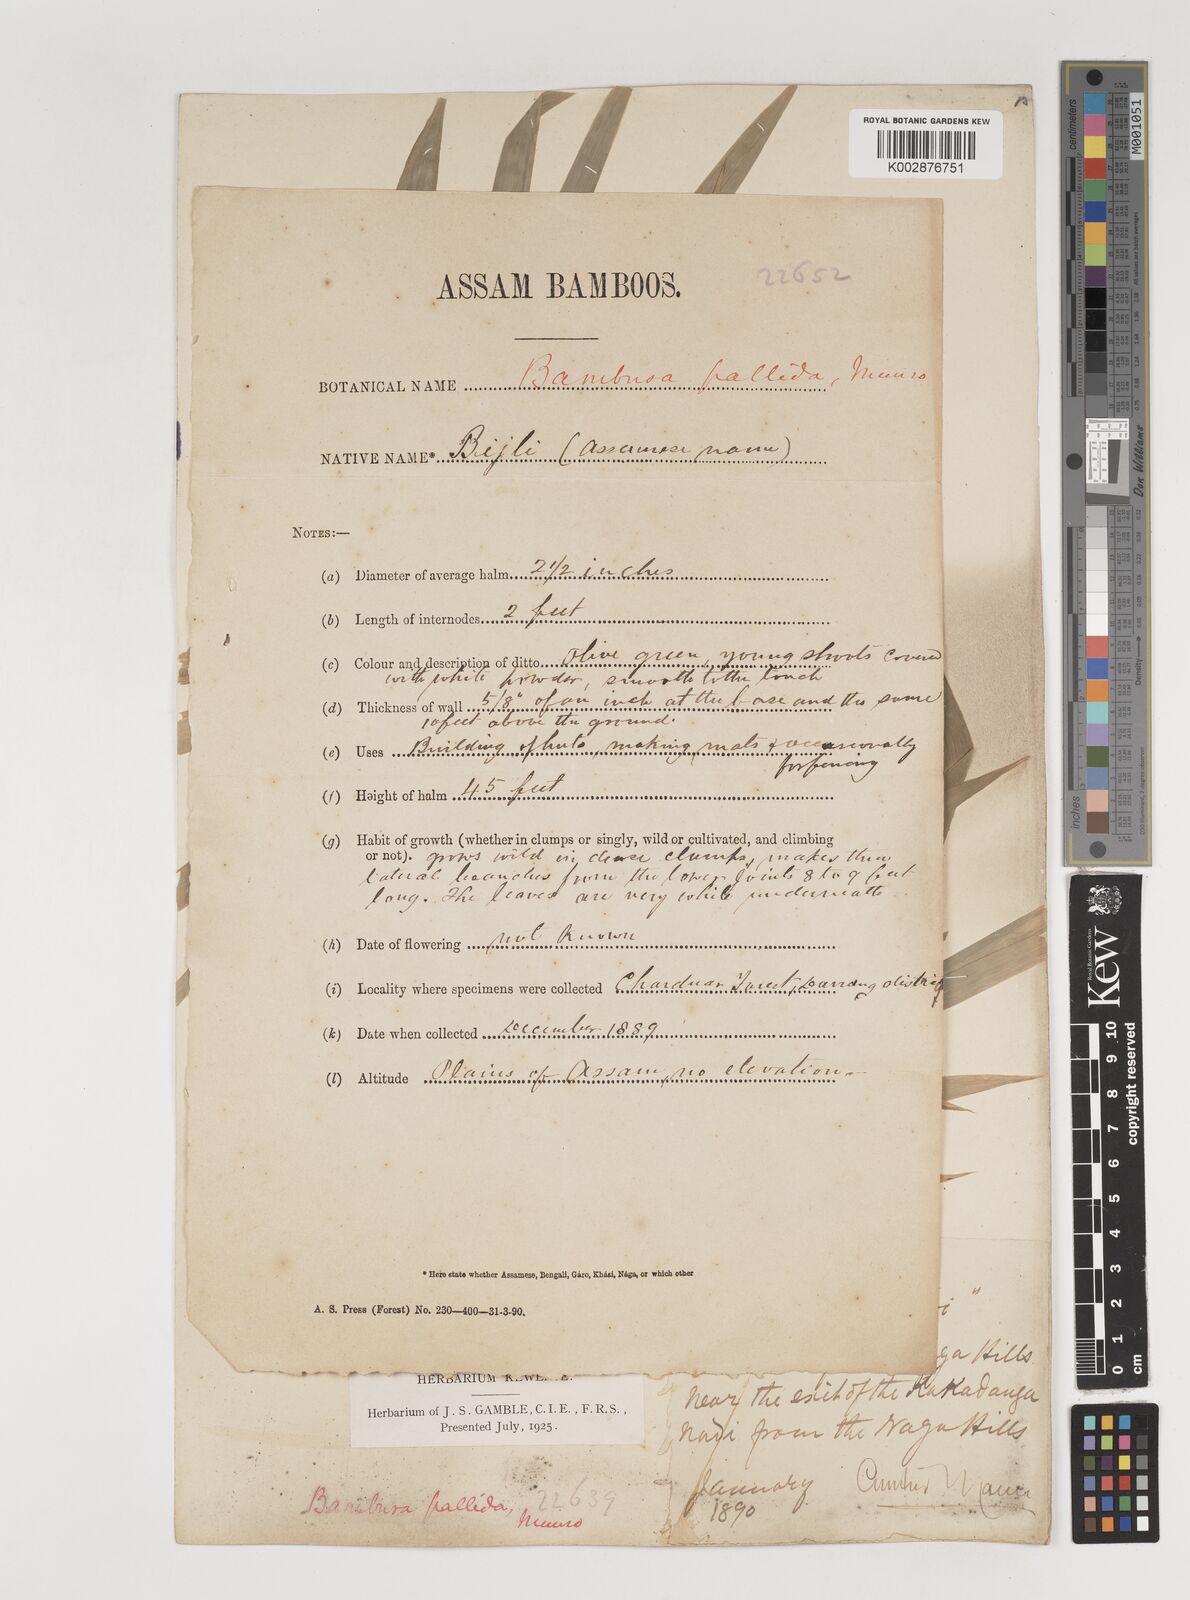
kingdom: Plantae
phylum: Tracheophyta
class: Liliopsida
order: Poales
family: Poaceae
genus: Bambusa
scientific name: Bambusa pallida
